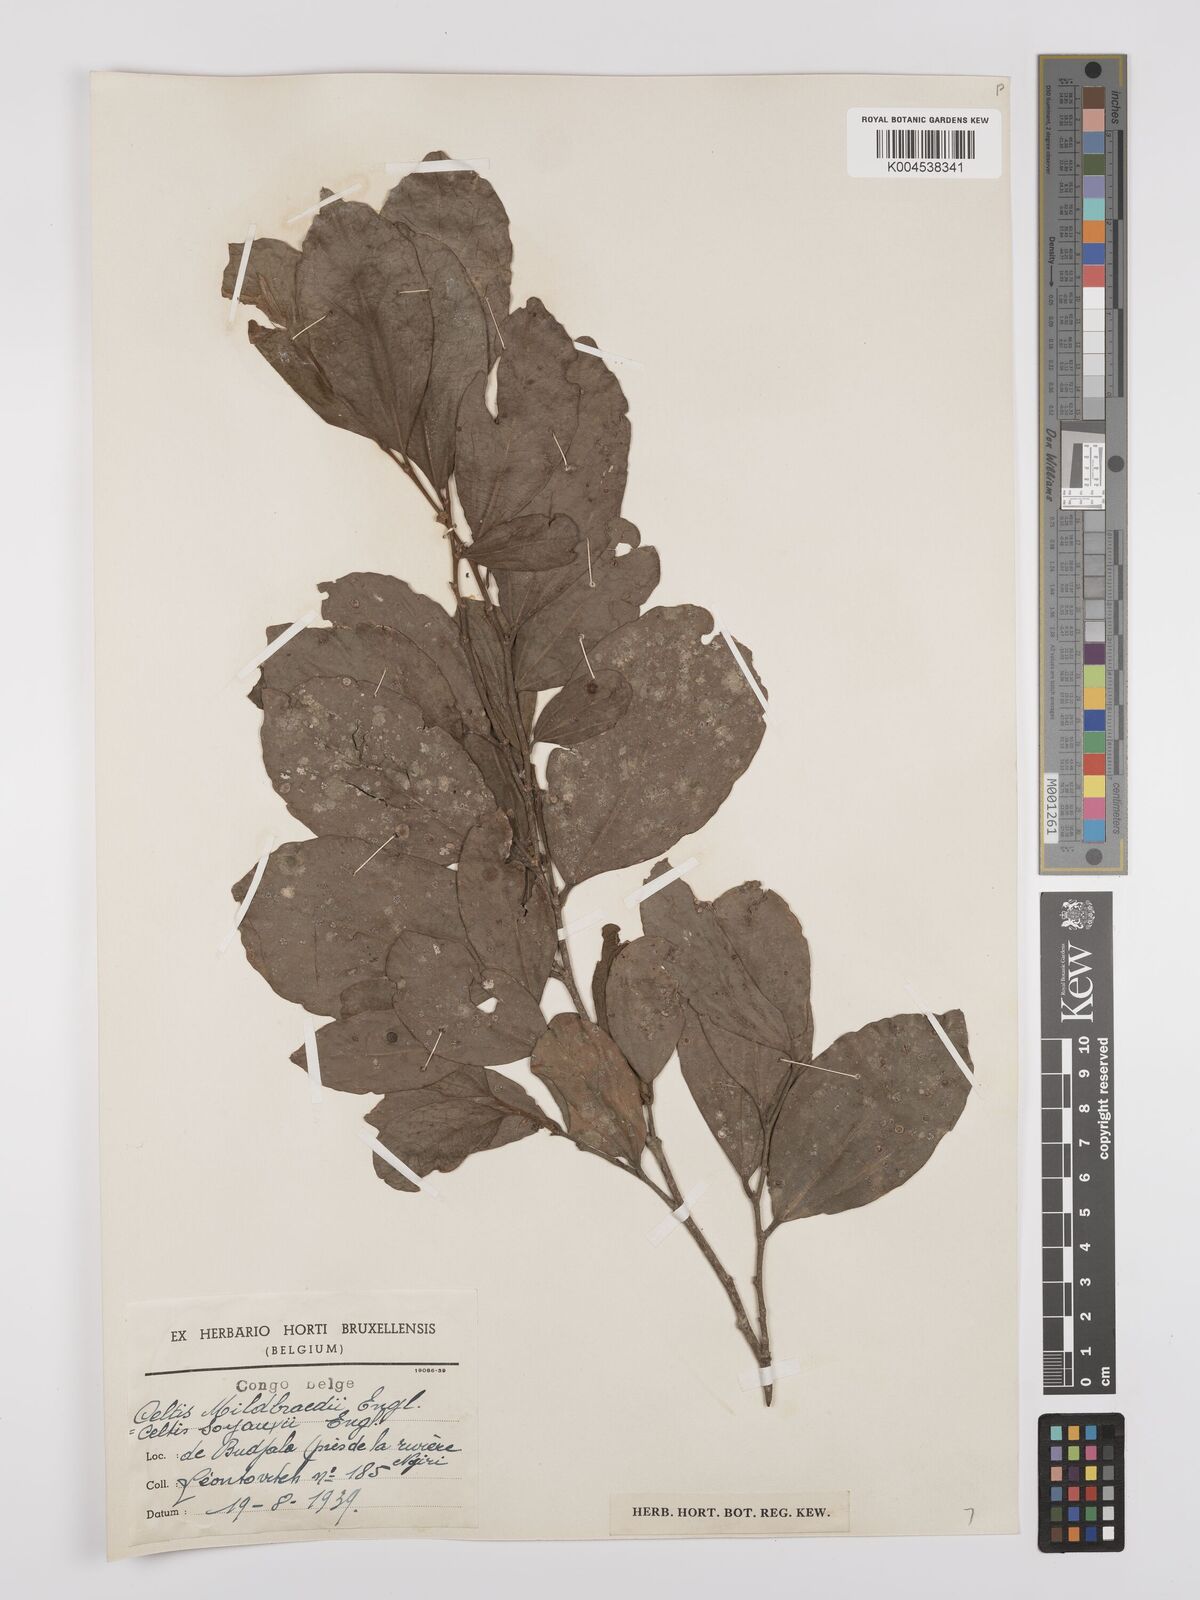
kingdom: Plantae
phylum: Tracheophyta
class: Magnoliopsida
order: Rosales
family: Cannabaceae
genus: Celtis
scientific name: Celtis mildbraedii
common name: Red-fruited stinkwood
